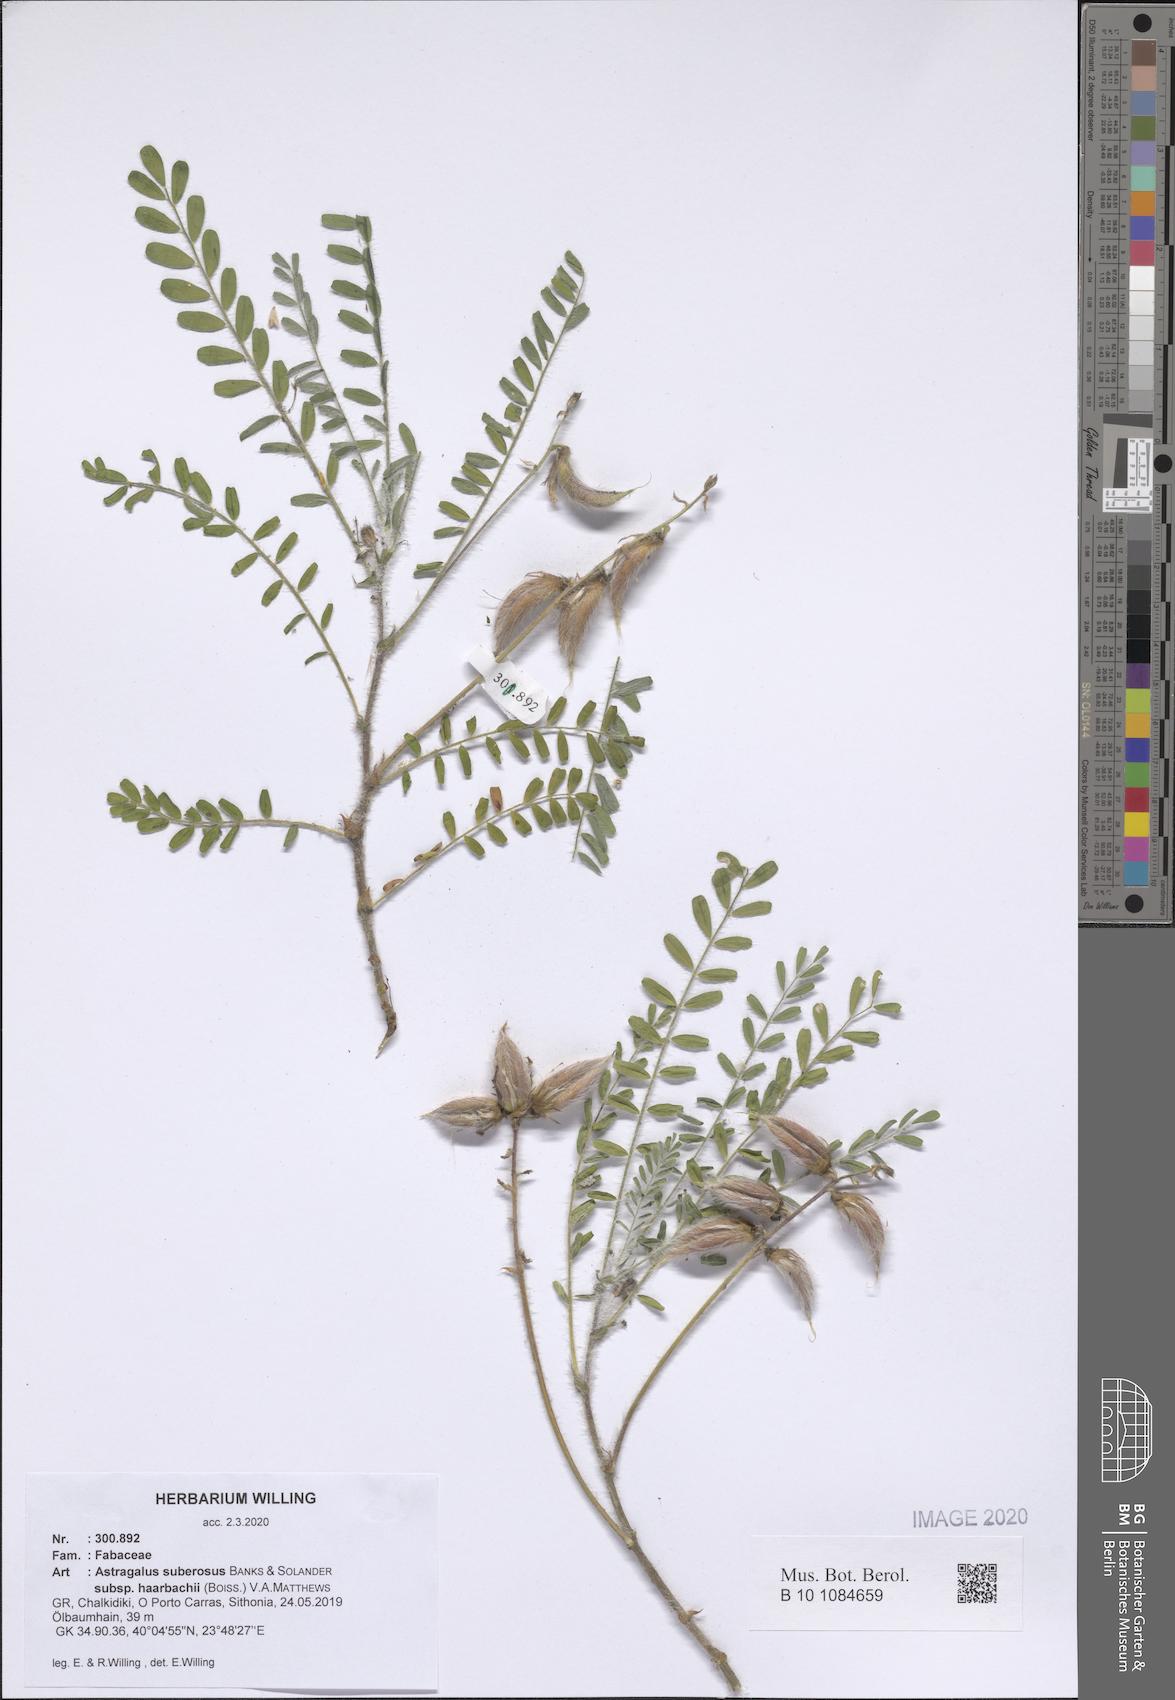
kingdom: Plantae
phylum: Tracheophyta
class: Magnoliopsida
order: Fabales
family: Fabaceae
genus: Astragalus
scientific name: Astragalus suberosus
